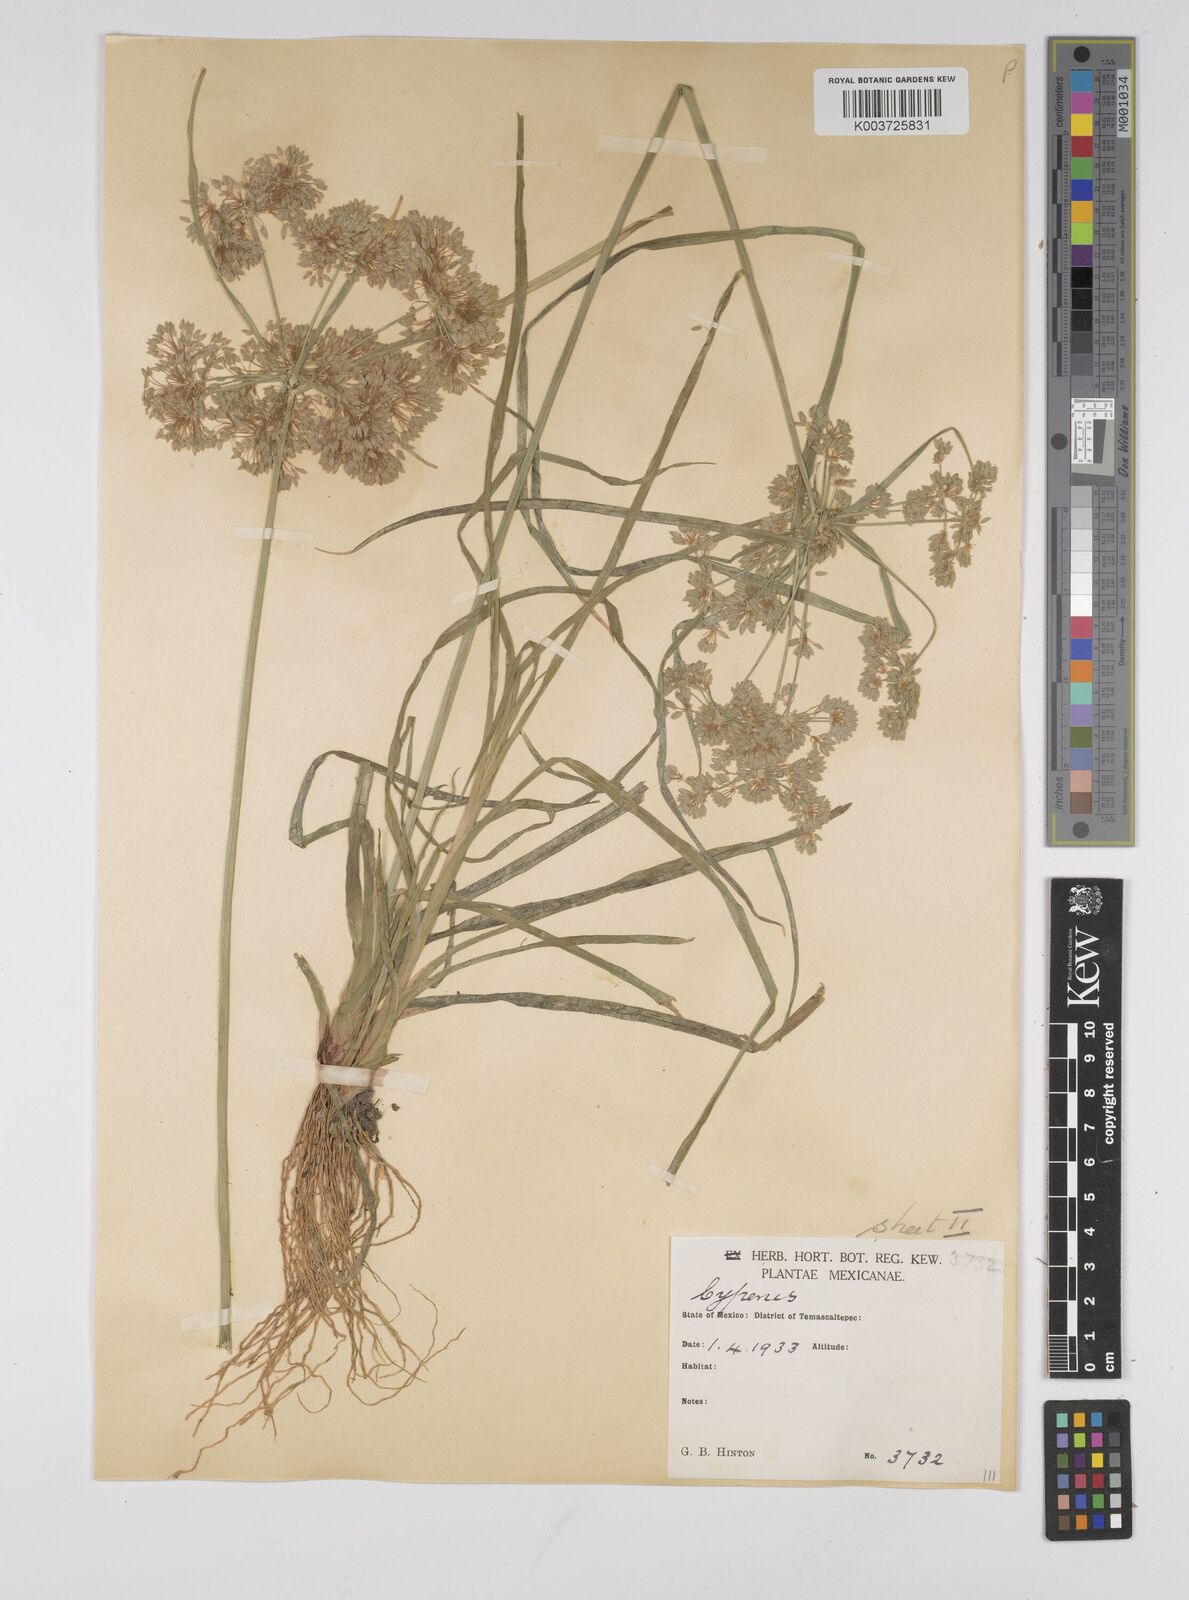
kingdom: Plantae
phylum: Tracheophyta
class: Liliopsida
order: Poales
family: Cyperaceae
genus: Cyperus
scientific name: Cyperus surinamensis
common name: Tropical flat sedge
